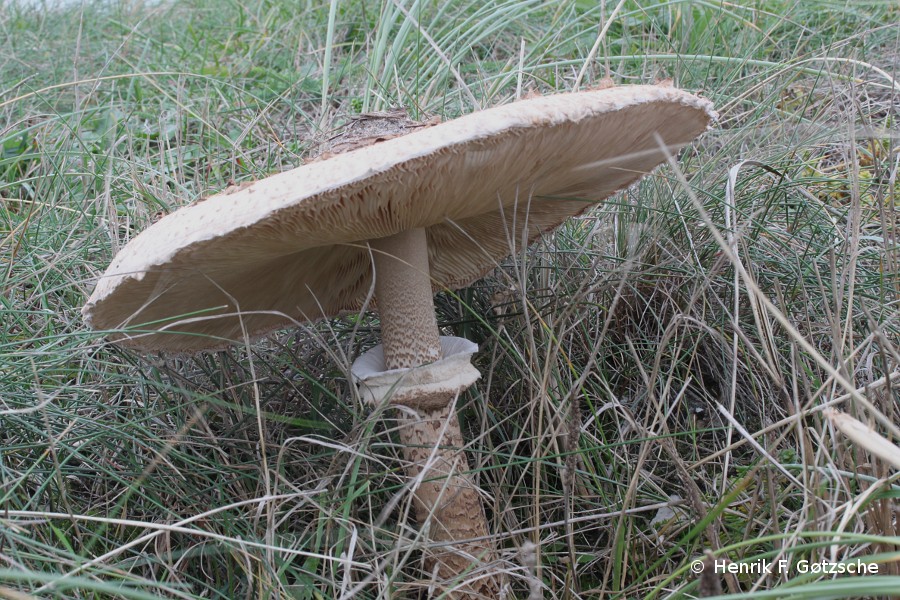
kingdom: Fungi
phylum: Basidiomycota
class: Agaricomycetes
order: Agaricales
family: Agaricaceae
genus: Macrolepiota
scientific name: Macrolepiota procera
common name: stor kæmpeparasolhat
